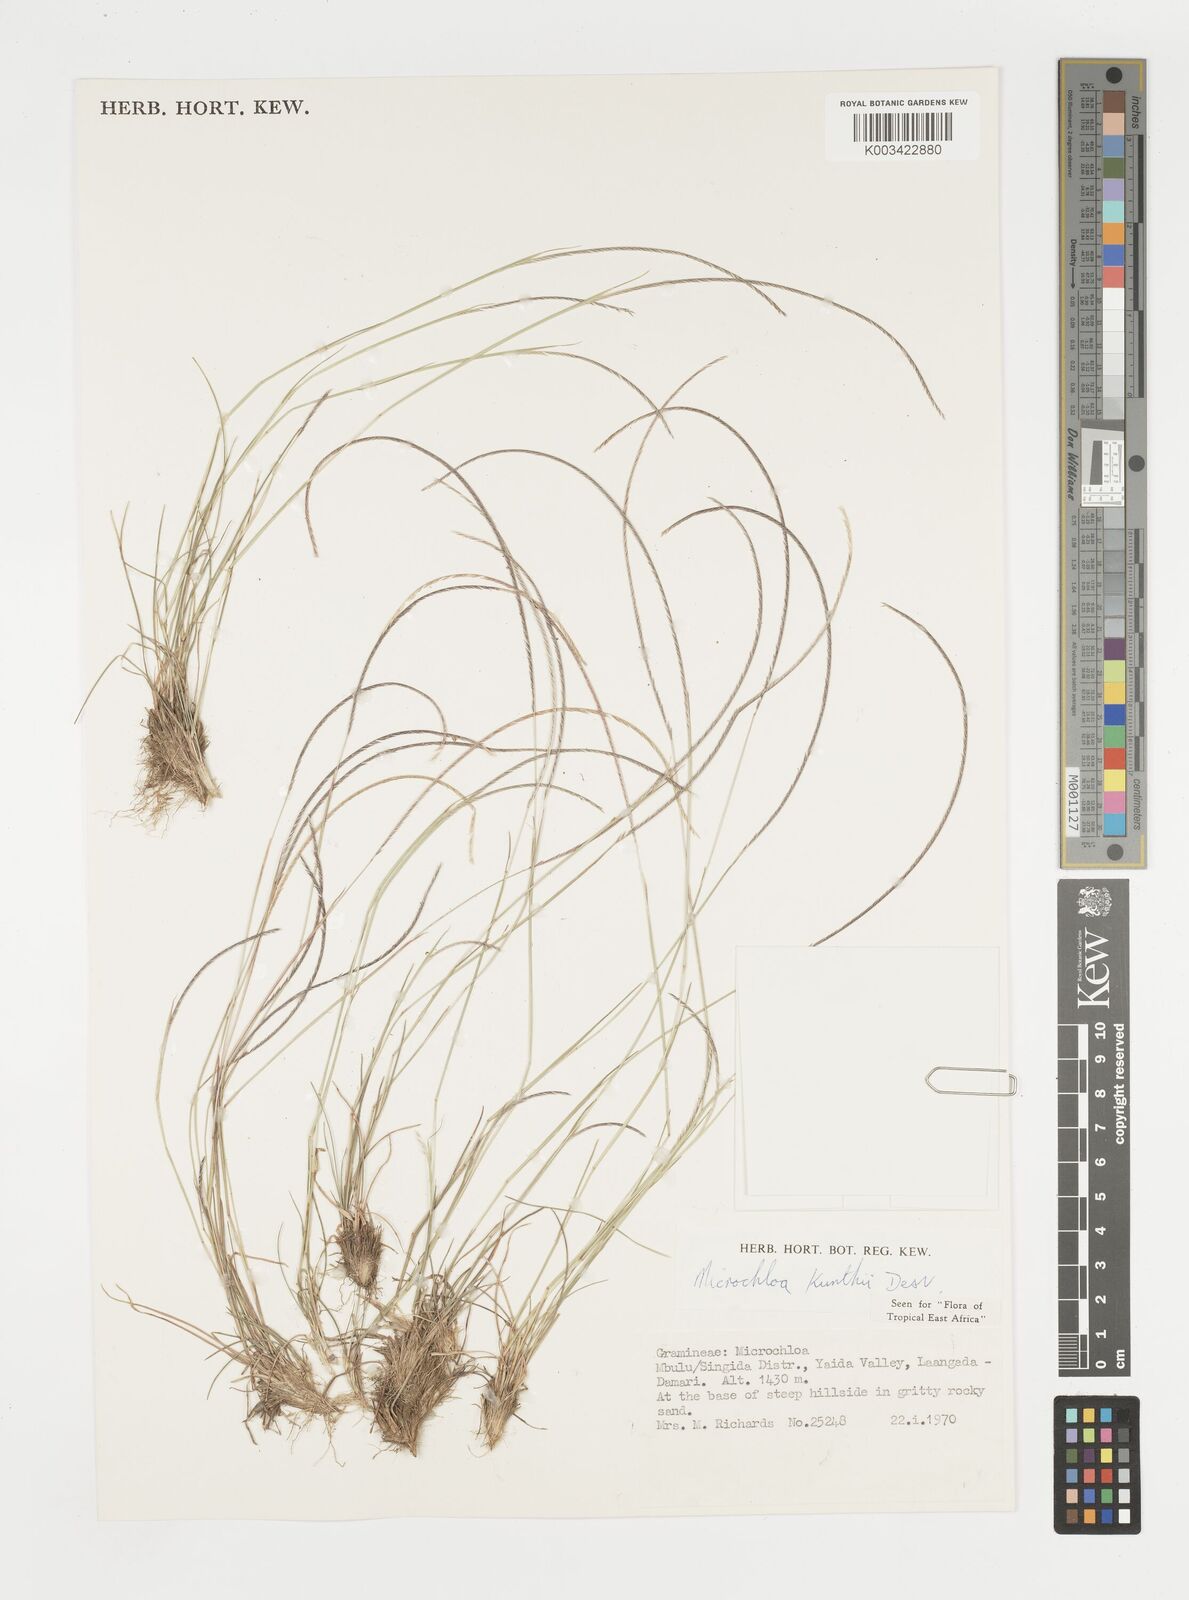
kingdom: Plantae
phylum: Tracheophyta
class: Liliopsida
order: Poales
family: Poaceae
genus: Microchloa
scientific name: Microchloa kunthii
